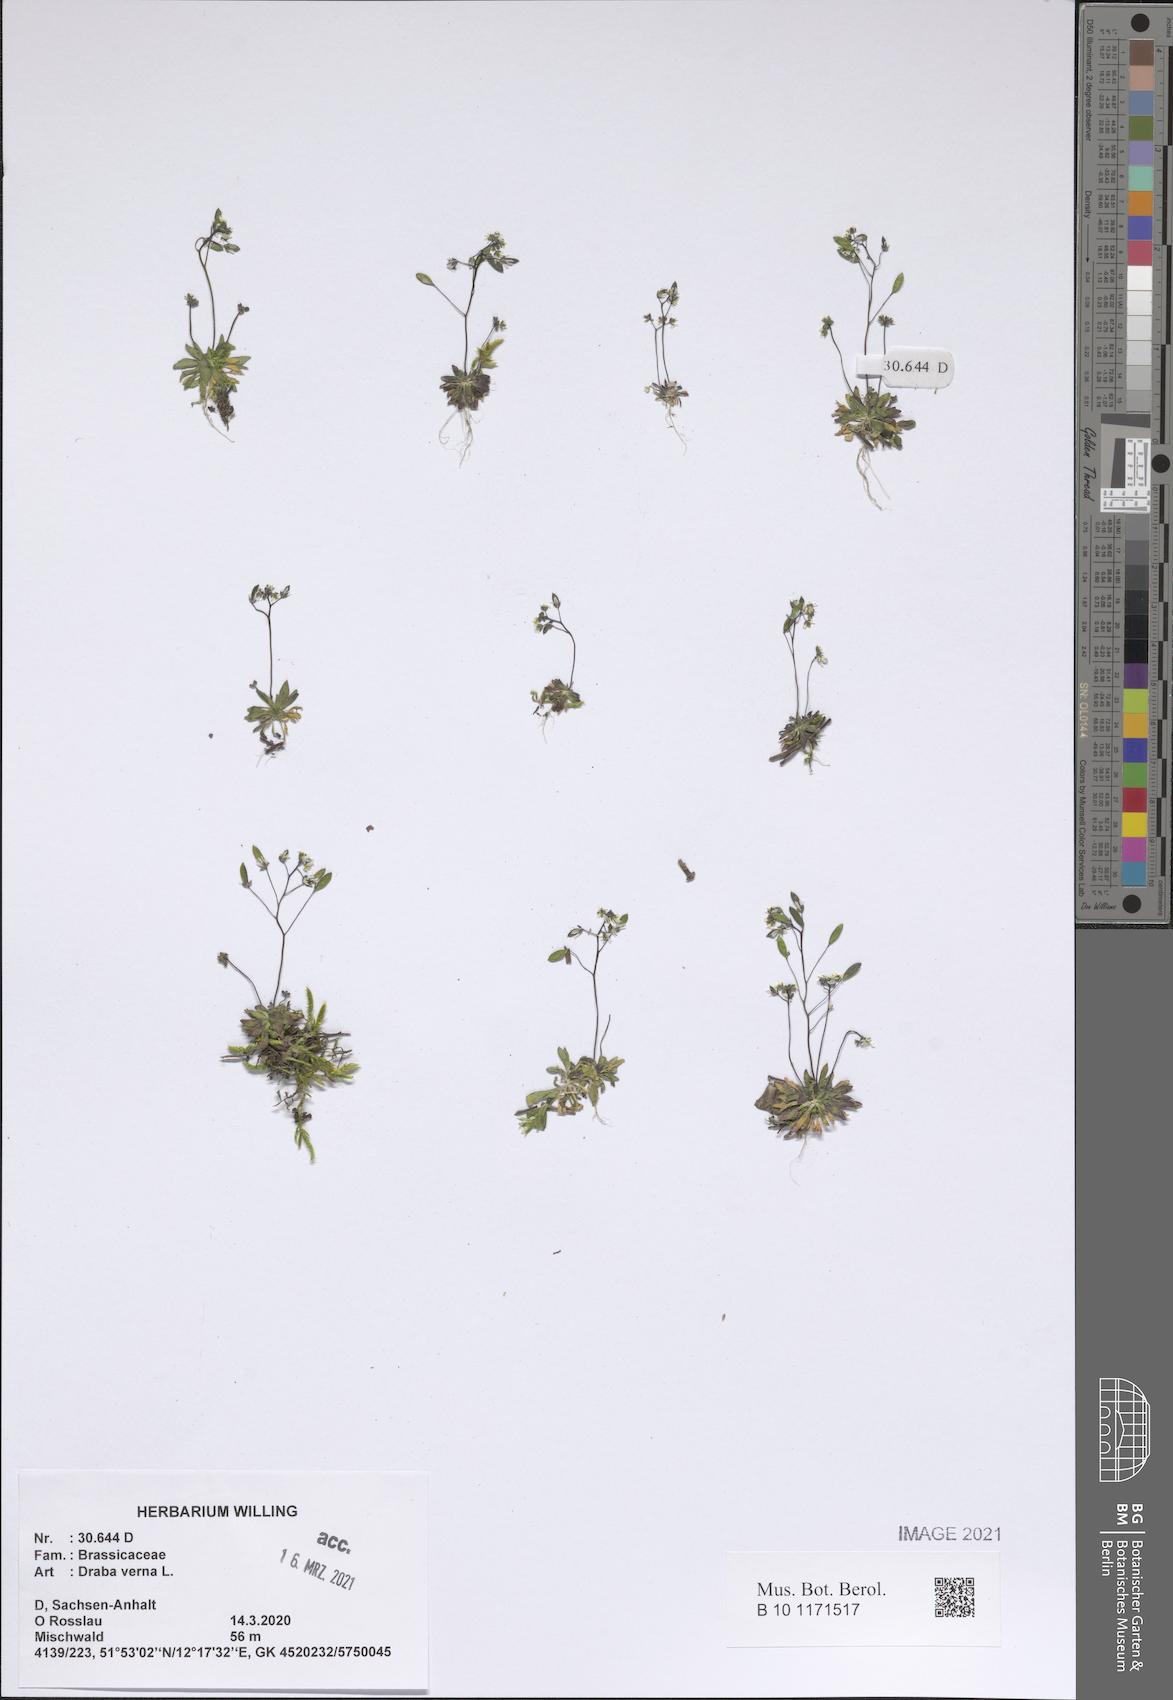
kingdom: Plantae
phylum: Tracheophyta
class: Magnoliopsida
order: Brassicales
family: Brassicaceae
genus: Draba
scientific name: Draba verna
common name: Spring draba
